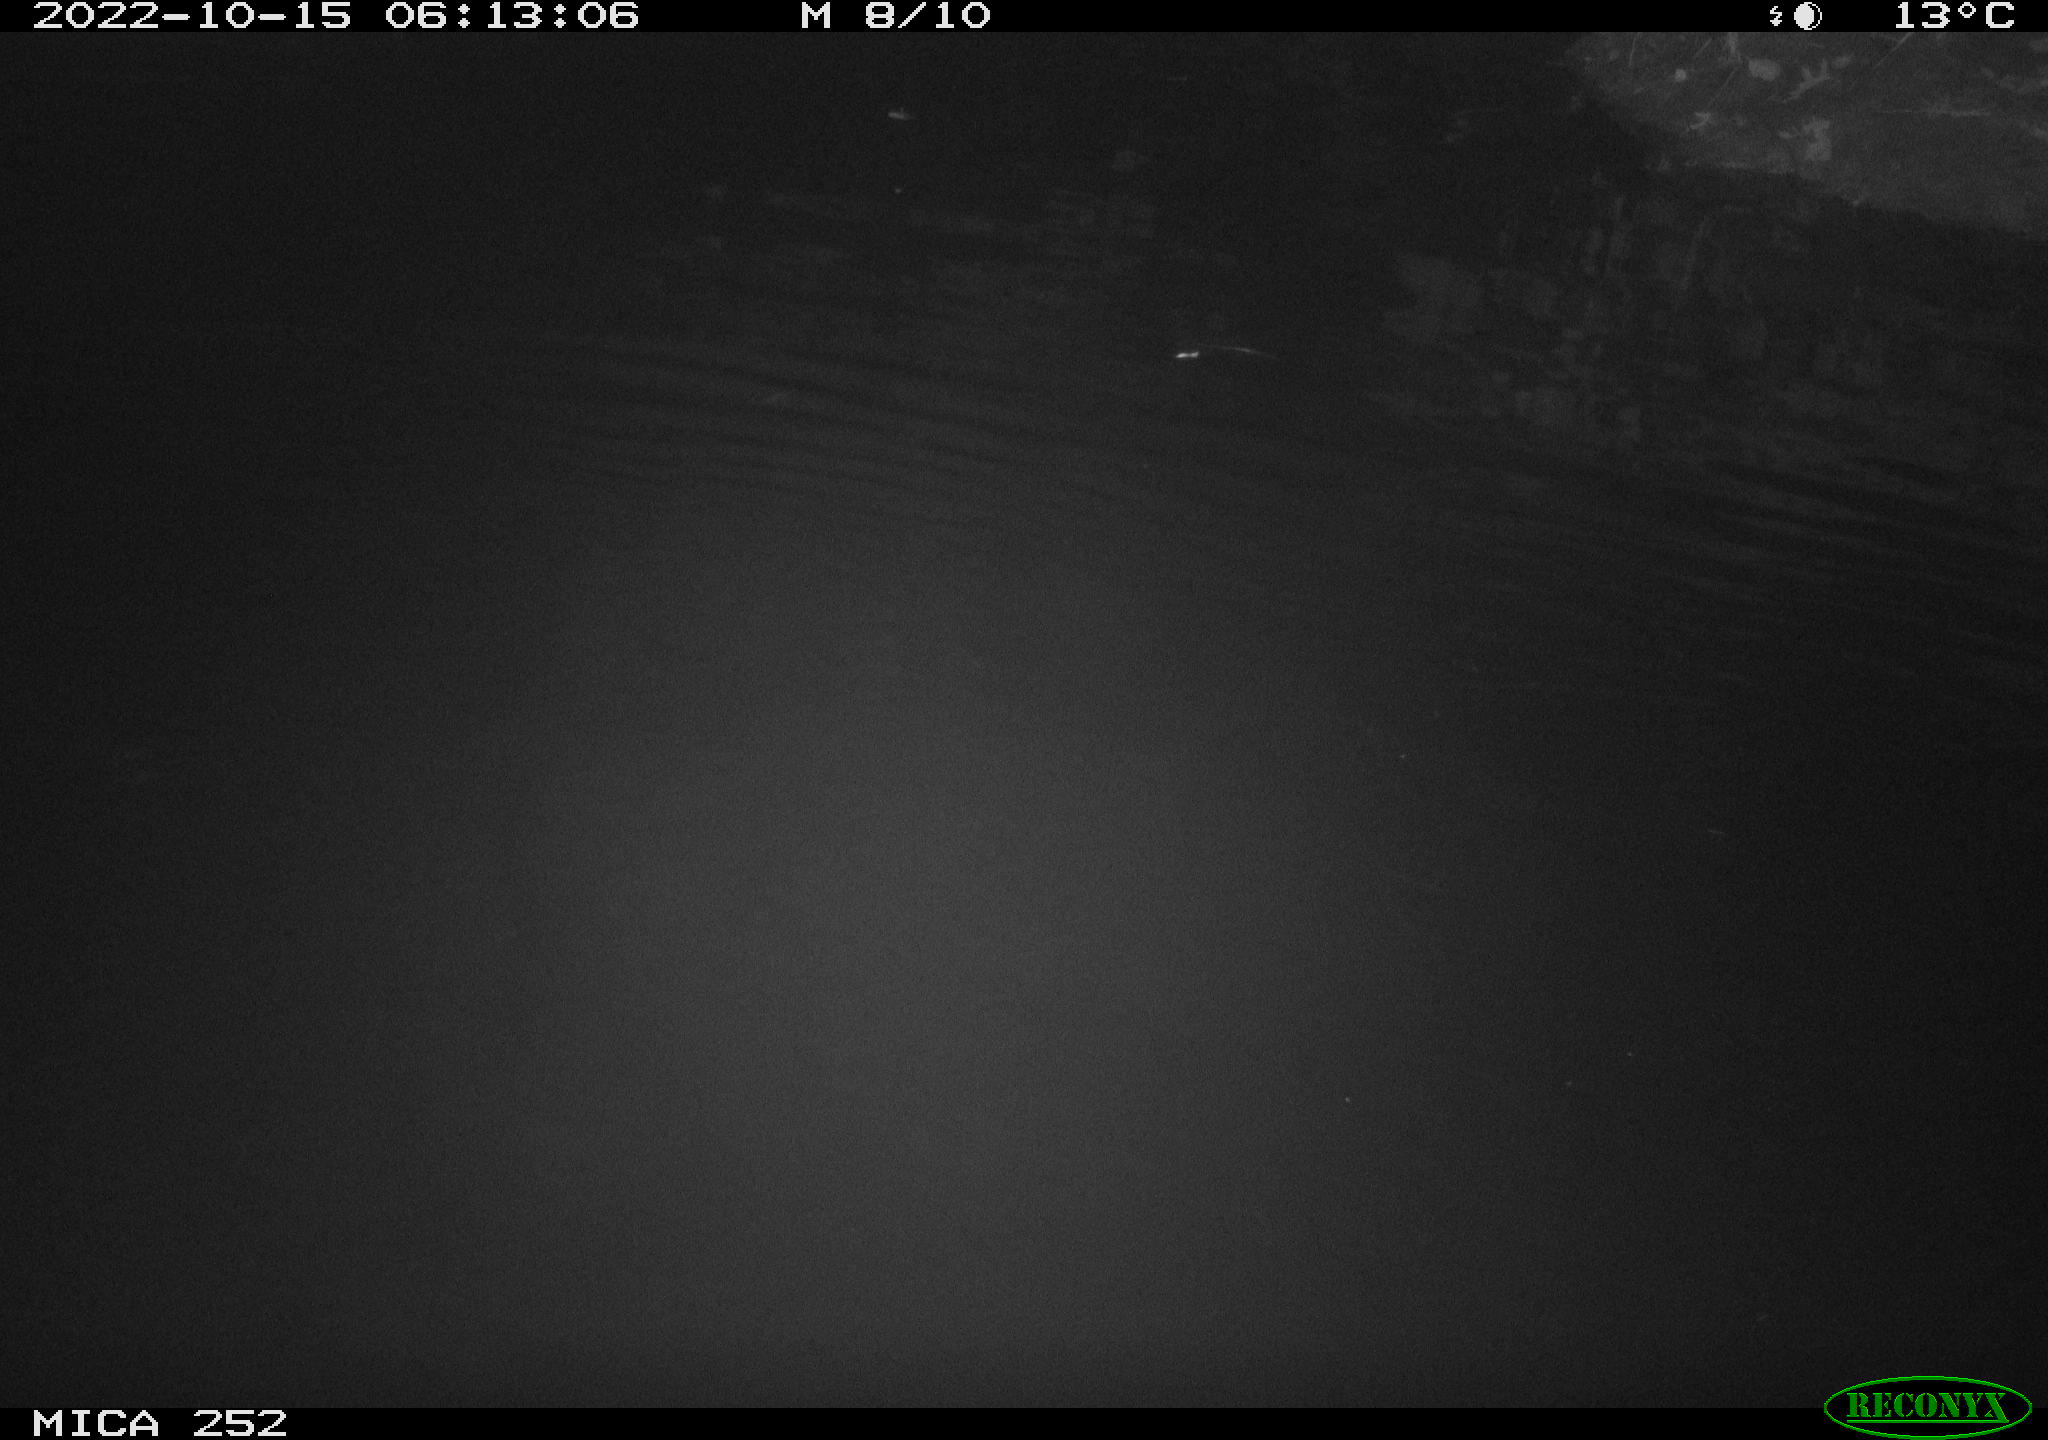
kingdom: Animalia
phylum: Chordata
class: Mammalia
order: Rodentia
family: Castoridae
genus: Castor
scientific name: Castor fiber
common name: Eurasian beaver
